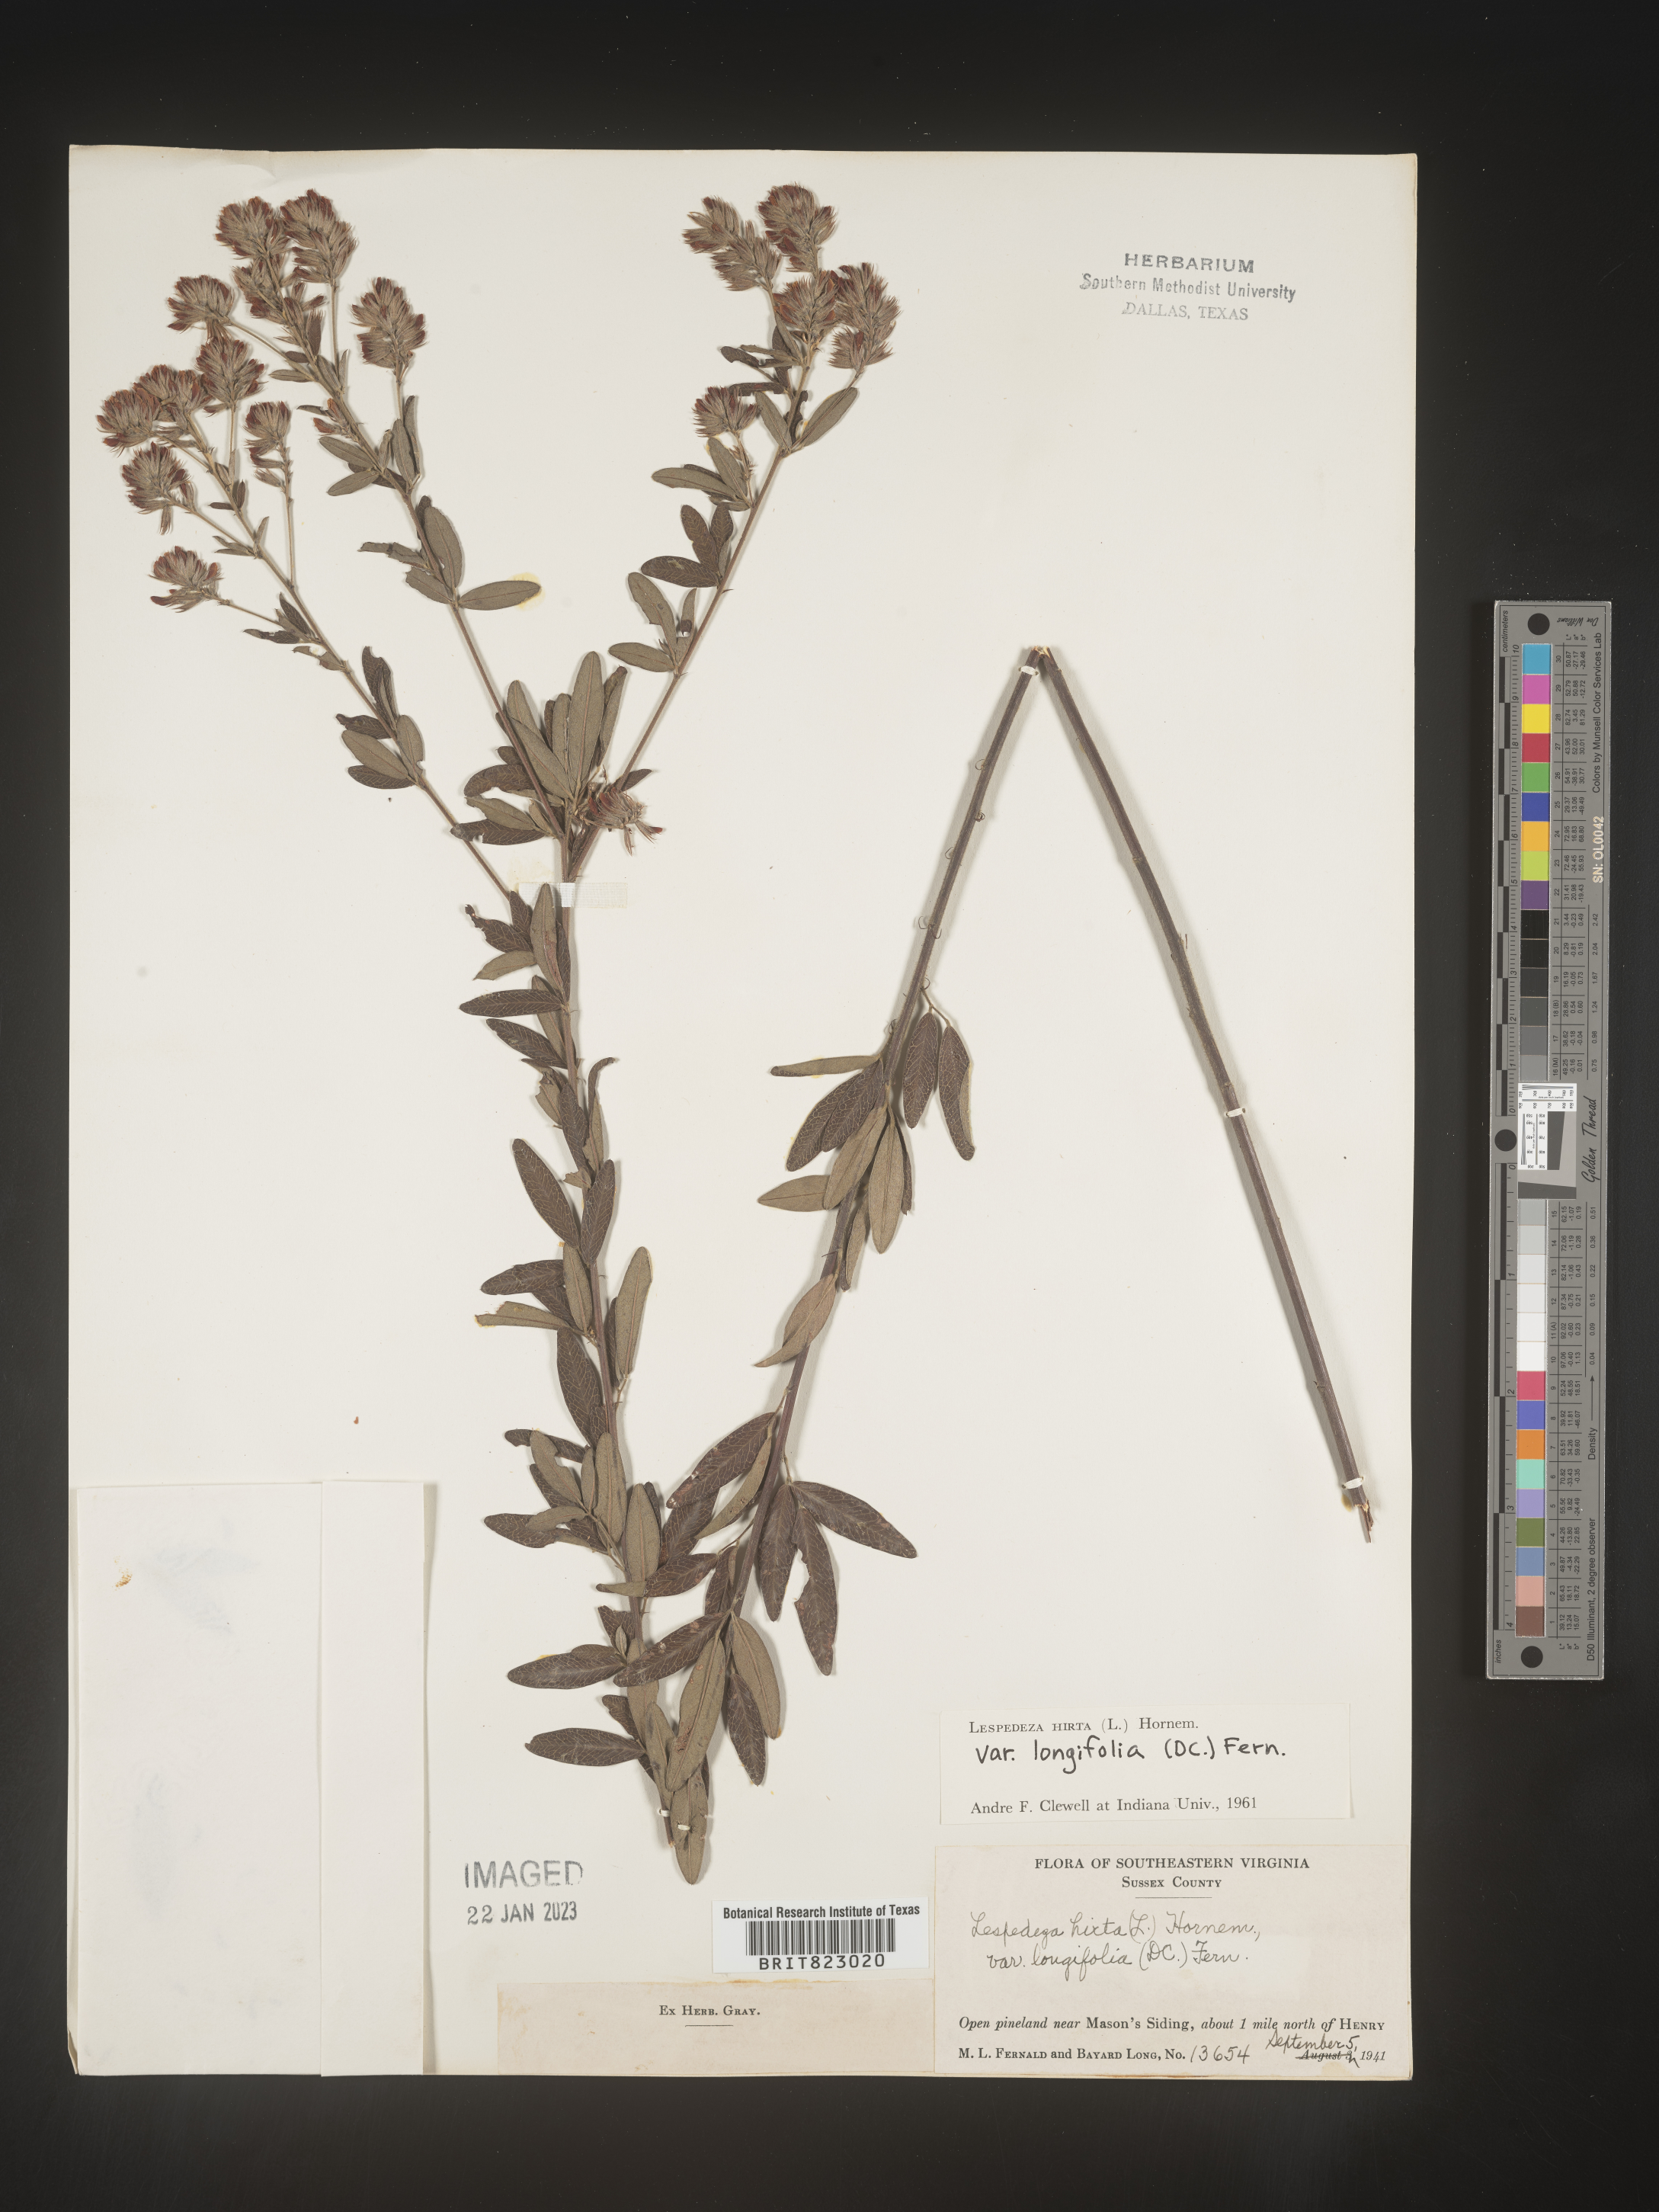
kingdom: Plantae
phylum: Tracheophyta
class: Magnoliopsida
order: Fabales
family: Fabaceae
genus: Lespedeza
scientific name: Lespedeza hirta
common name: Hairy lespedeza
